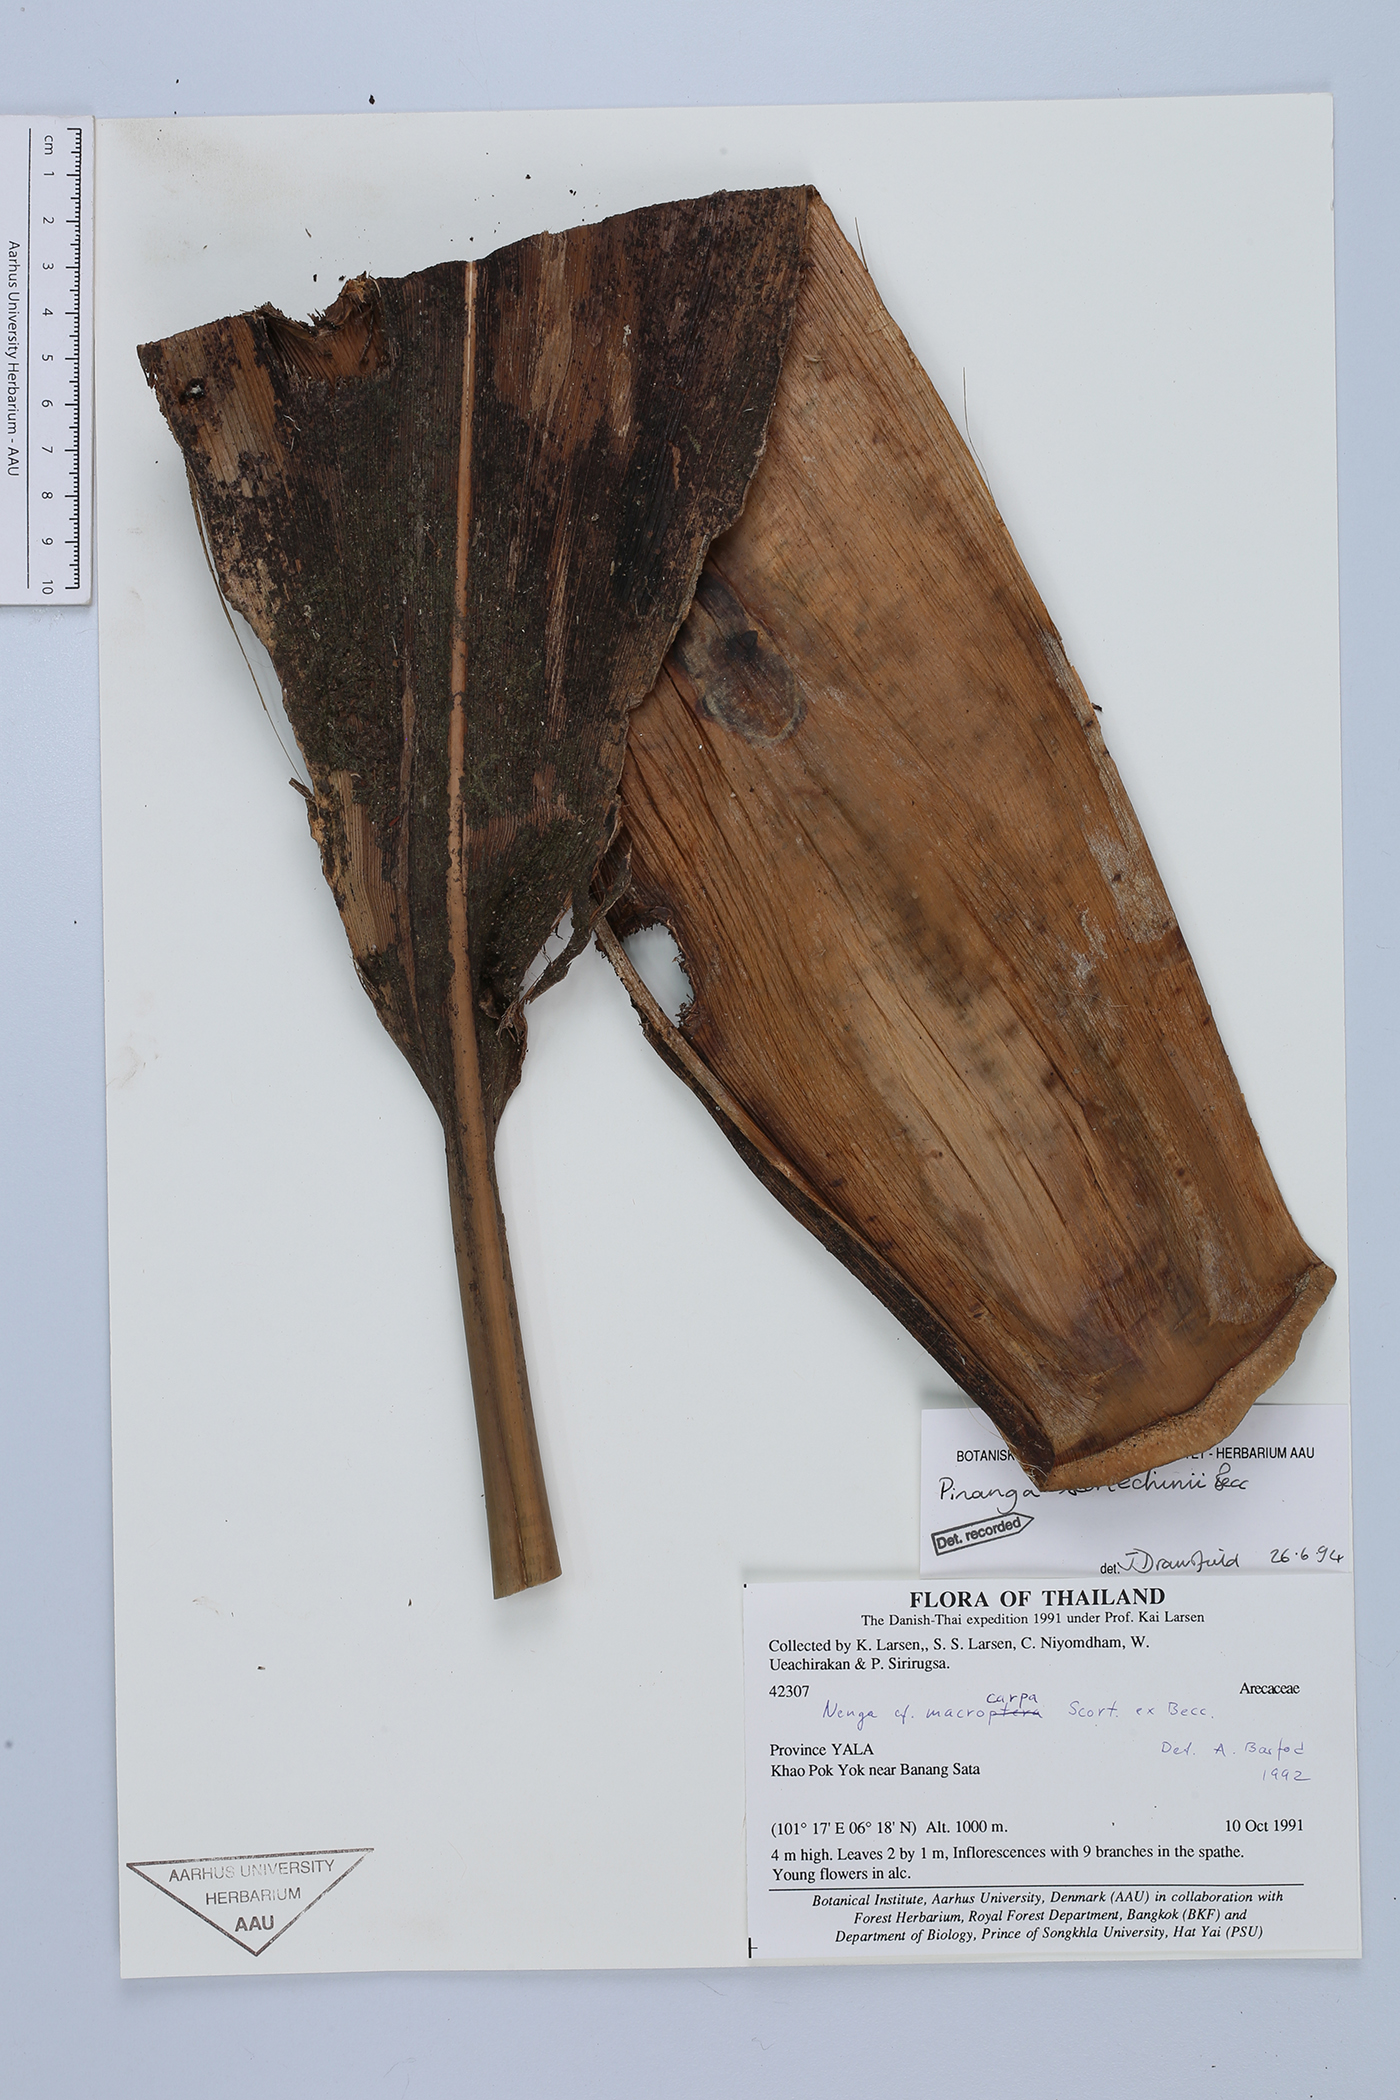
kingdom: Plantae
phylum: Tracheophyta
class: Liliopsida
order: Arecales
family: Arecaceae
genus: Pinanga
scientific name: Pinanga scortechinii
